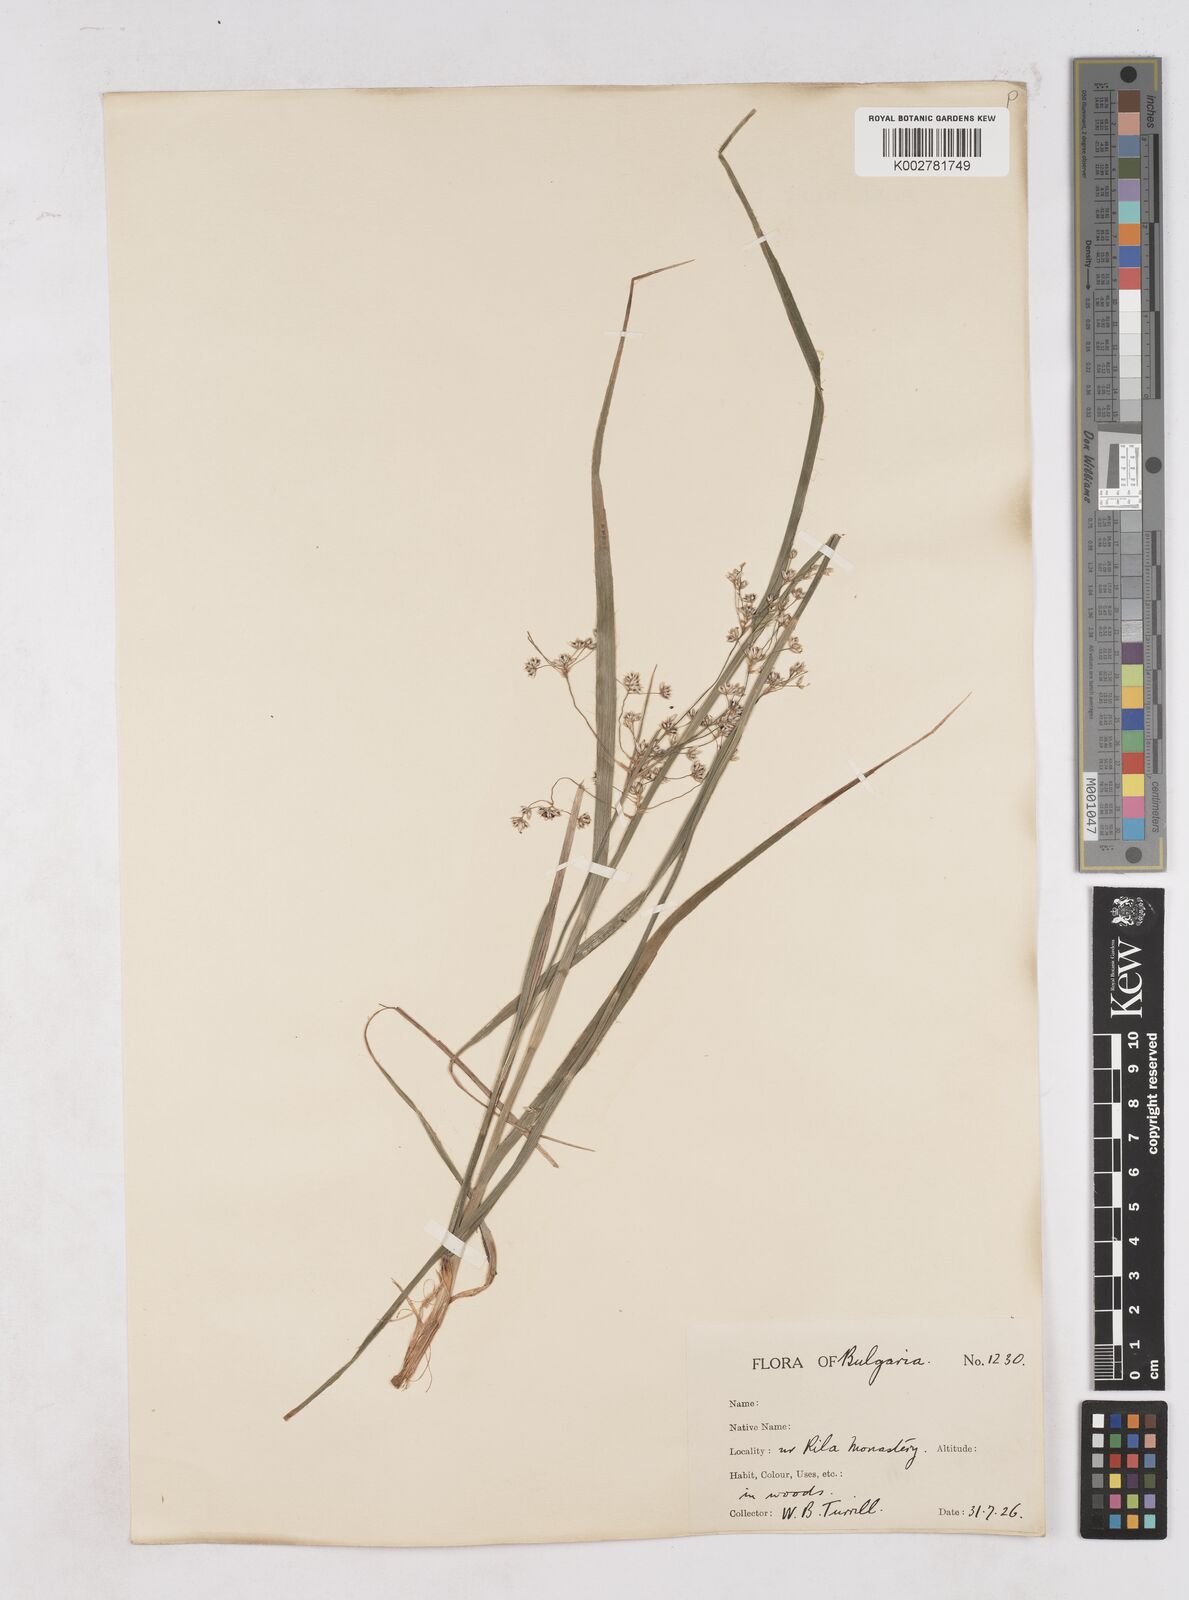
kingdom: Plantae
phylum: Tracheophyta
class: Liliopsida
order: Poales
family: Juncaceae
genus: Luzula
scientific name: Luzula luzuloides
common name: White wood-rush
